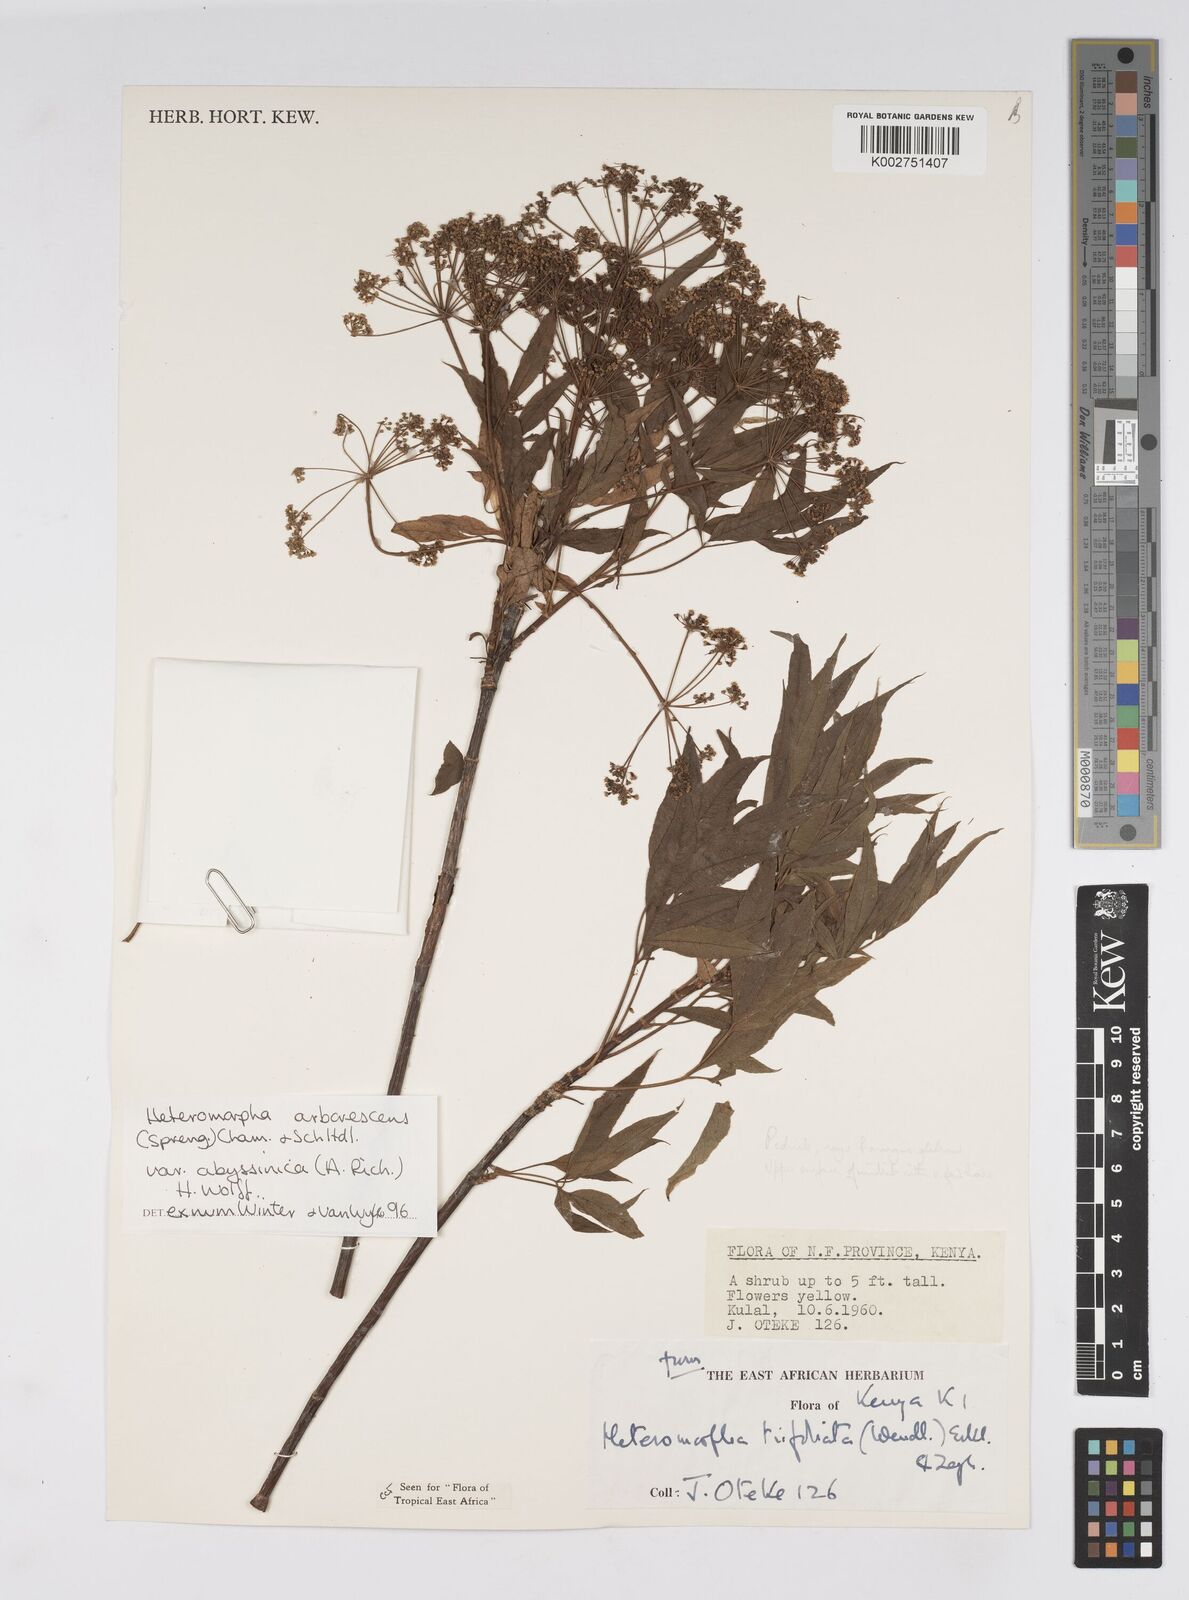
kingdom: Plantae
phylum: Tracheophyta
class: Magnoliopsida
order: Apiales
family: Apiaceae
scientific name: Apiaceae
